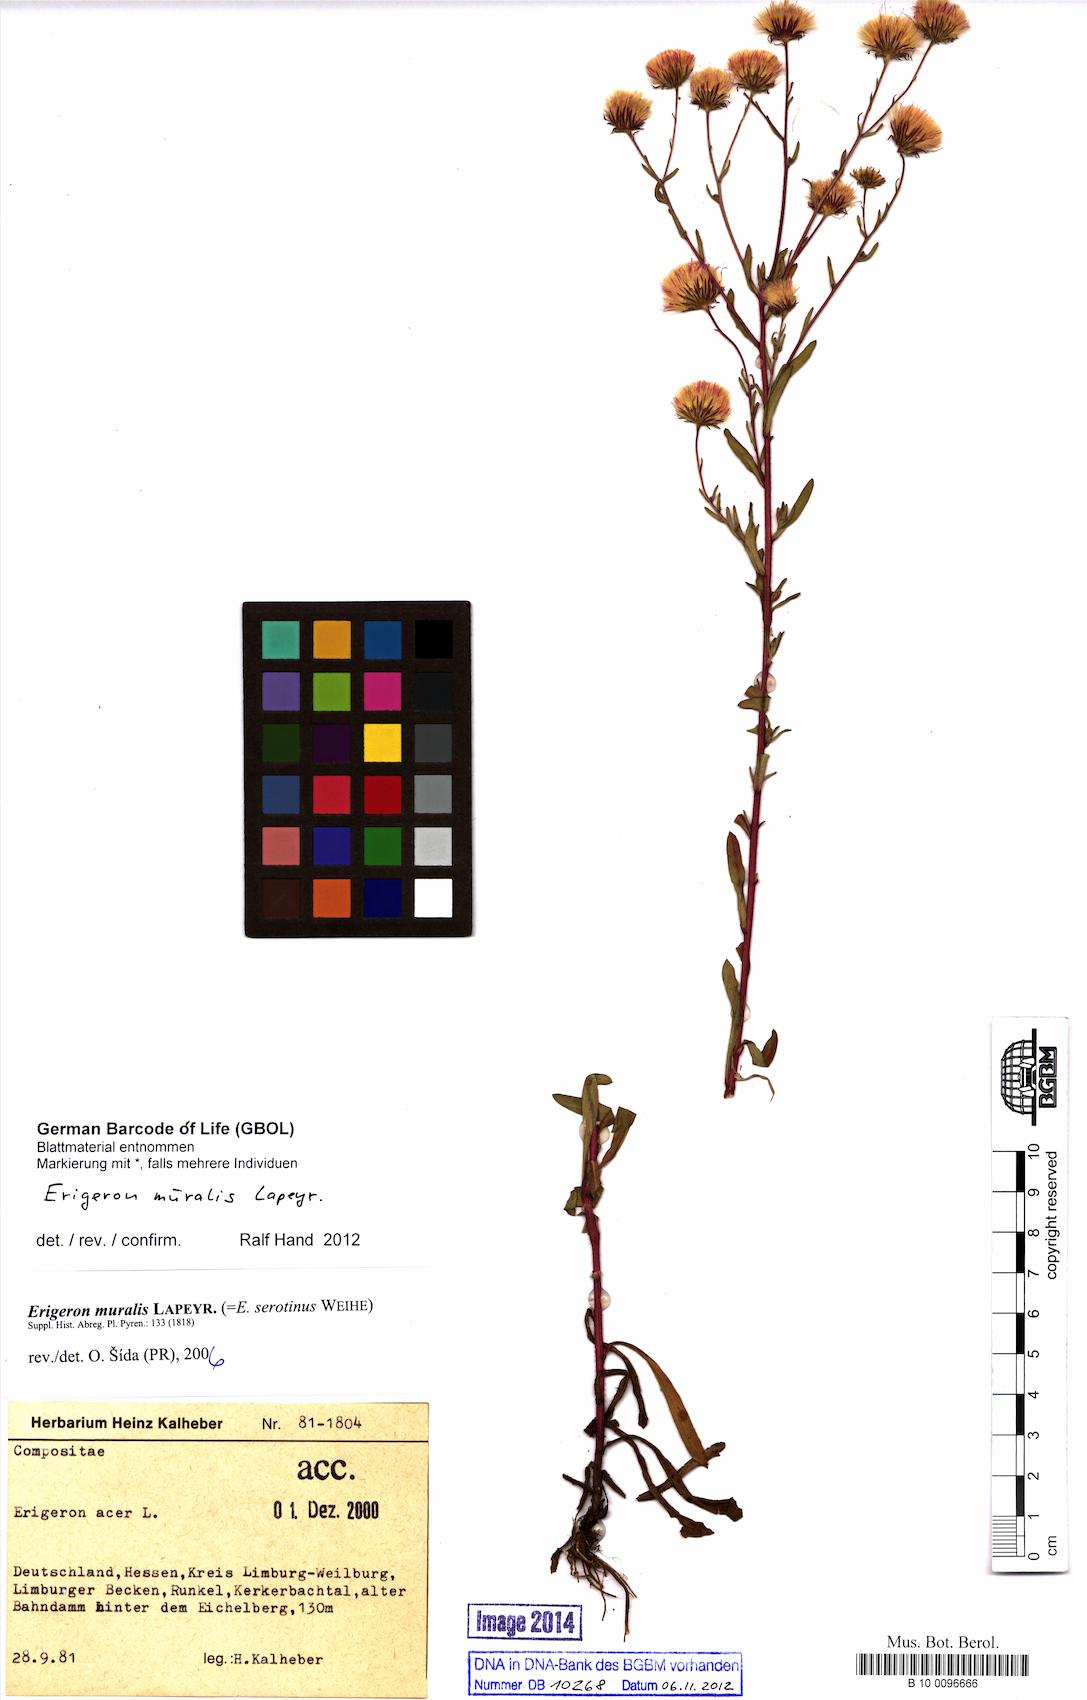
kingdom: Plantae
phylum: Tracheophyta
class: Magnoliopsida
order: Asterales
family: Asteraceae
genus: Erigeron
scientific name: Erigeron muralis
